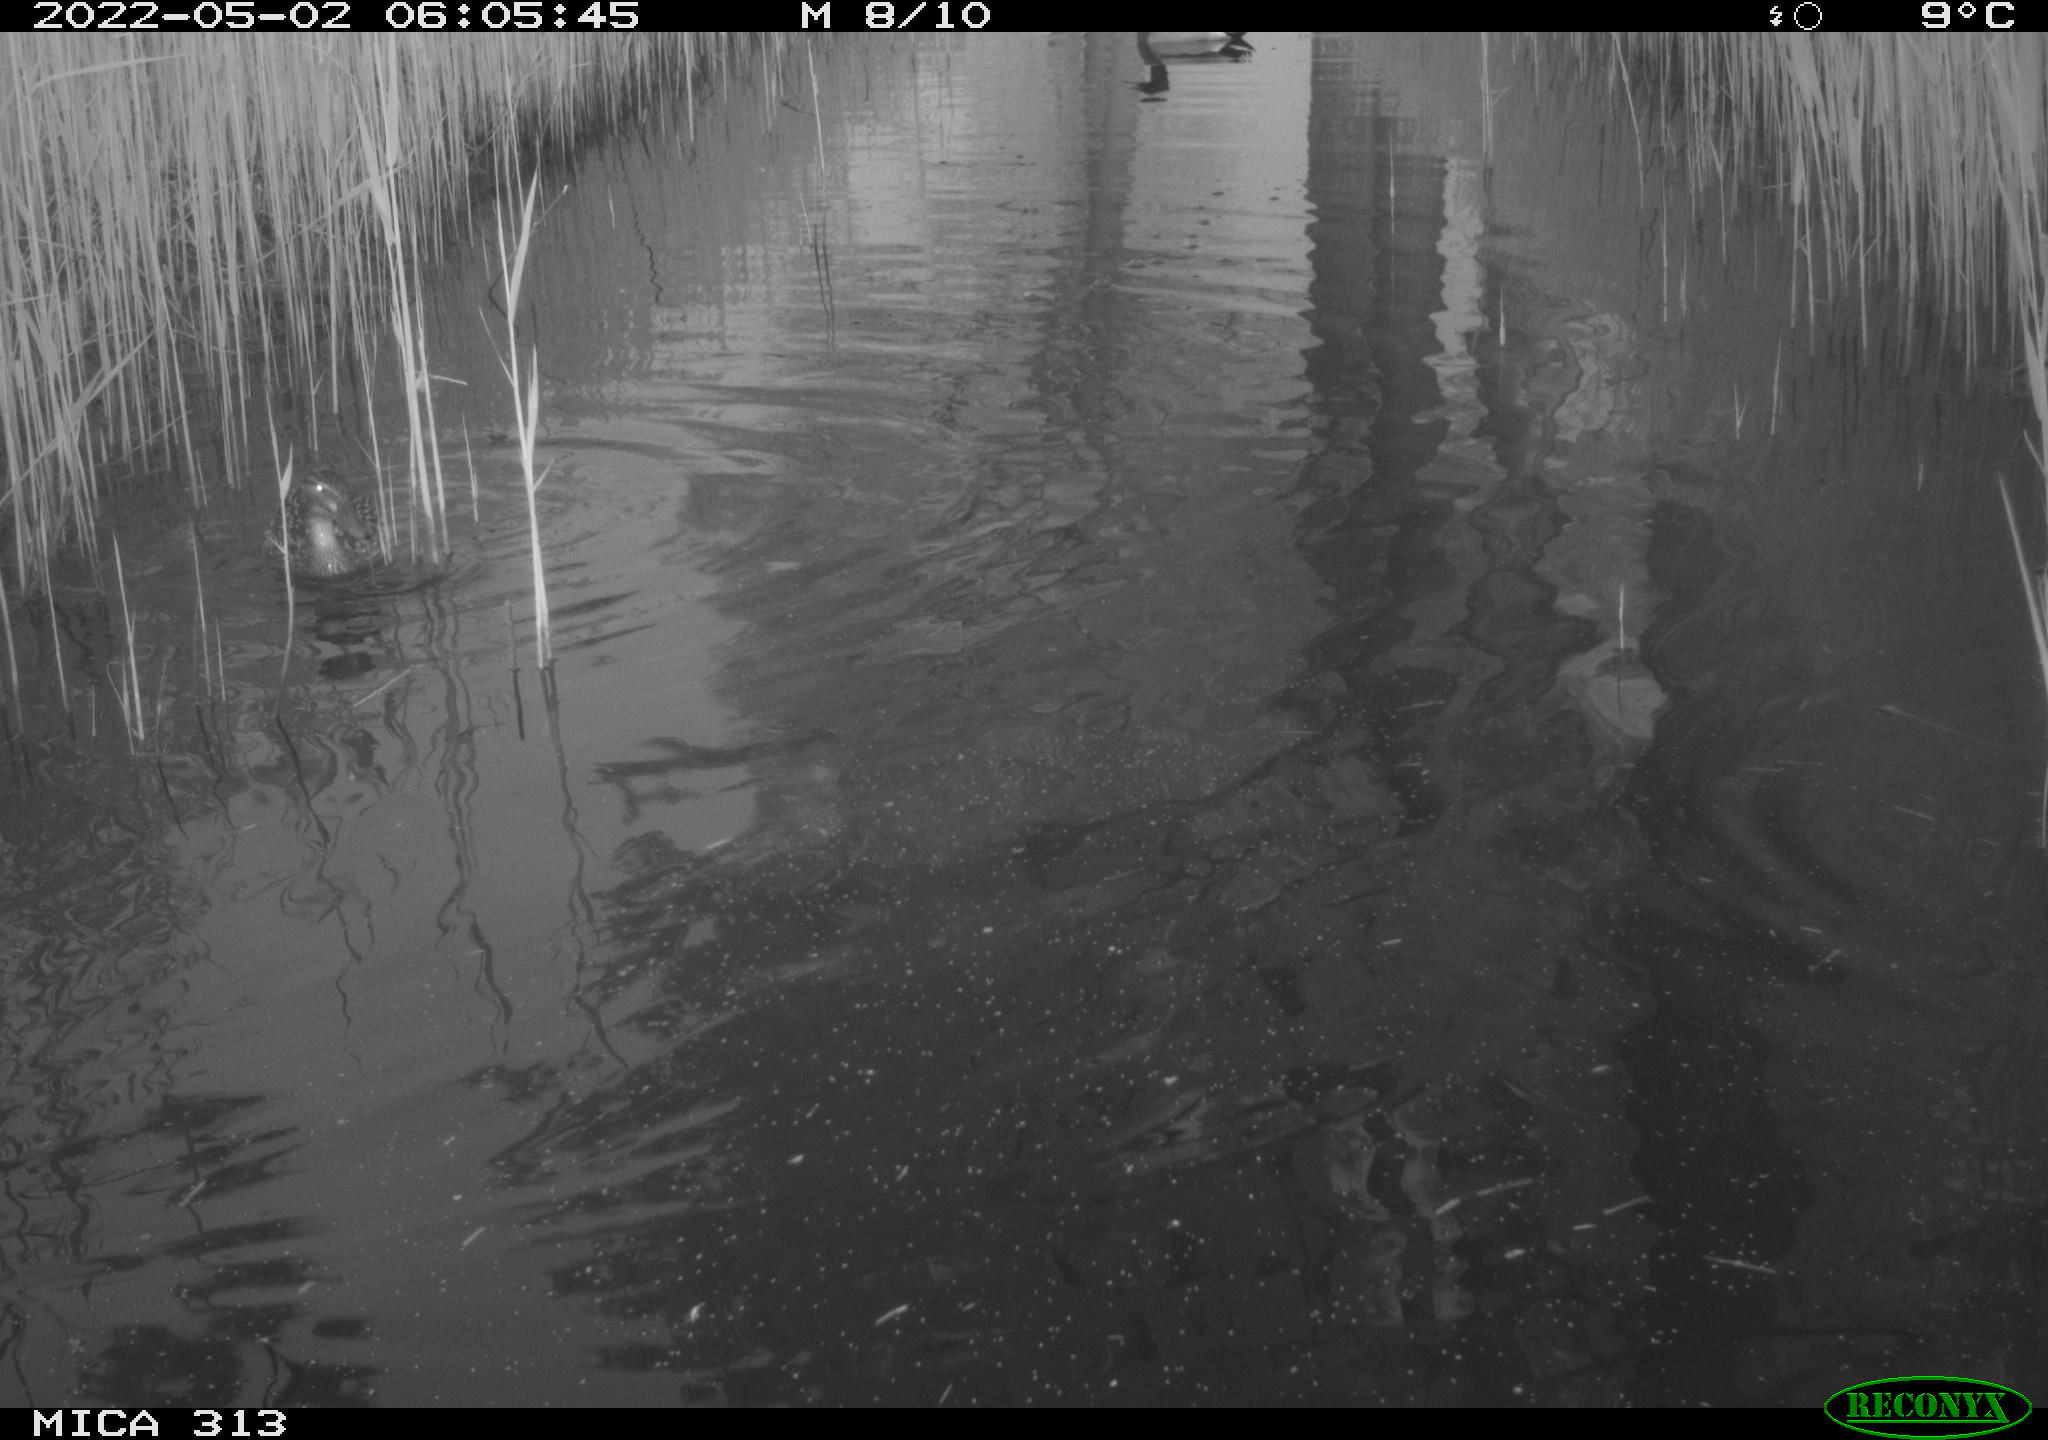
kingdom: Animalia
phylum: Chordata
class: Aves
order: Anseriformes
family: Anatidae
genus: Anas
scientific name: Anas platyrhynchos
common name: Mallard
